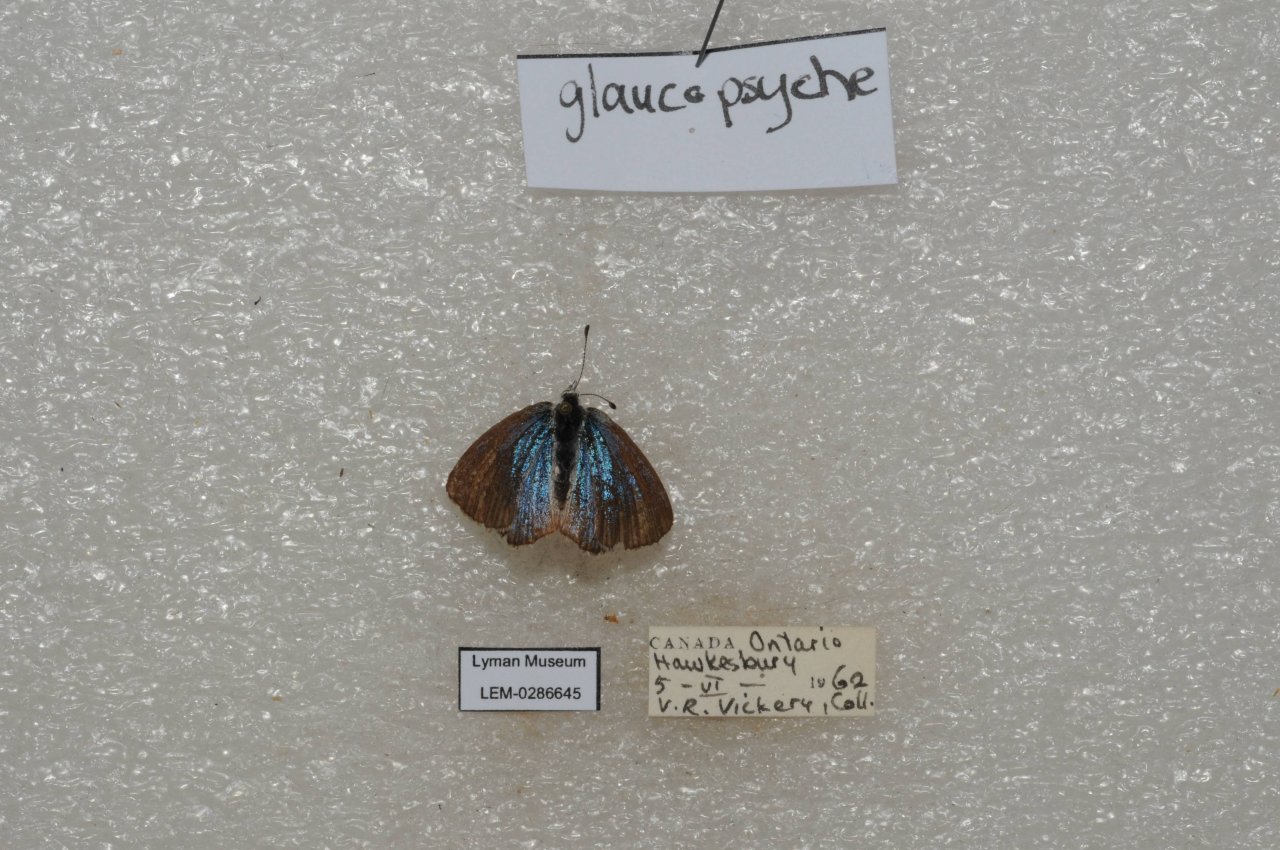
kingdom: Animalia
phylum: Arthropoda
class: Insecta
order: Lepidoptera
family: Lycaenidae
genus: Glaucopsyche
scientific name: Glaucopsyche lygdamus
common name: Silvery Blue
